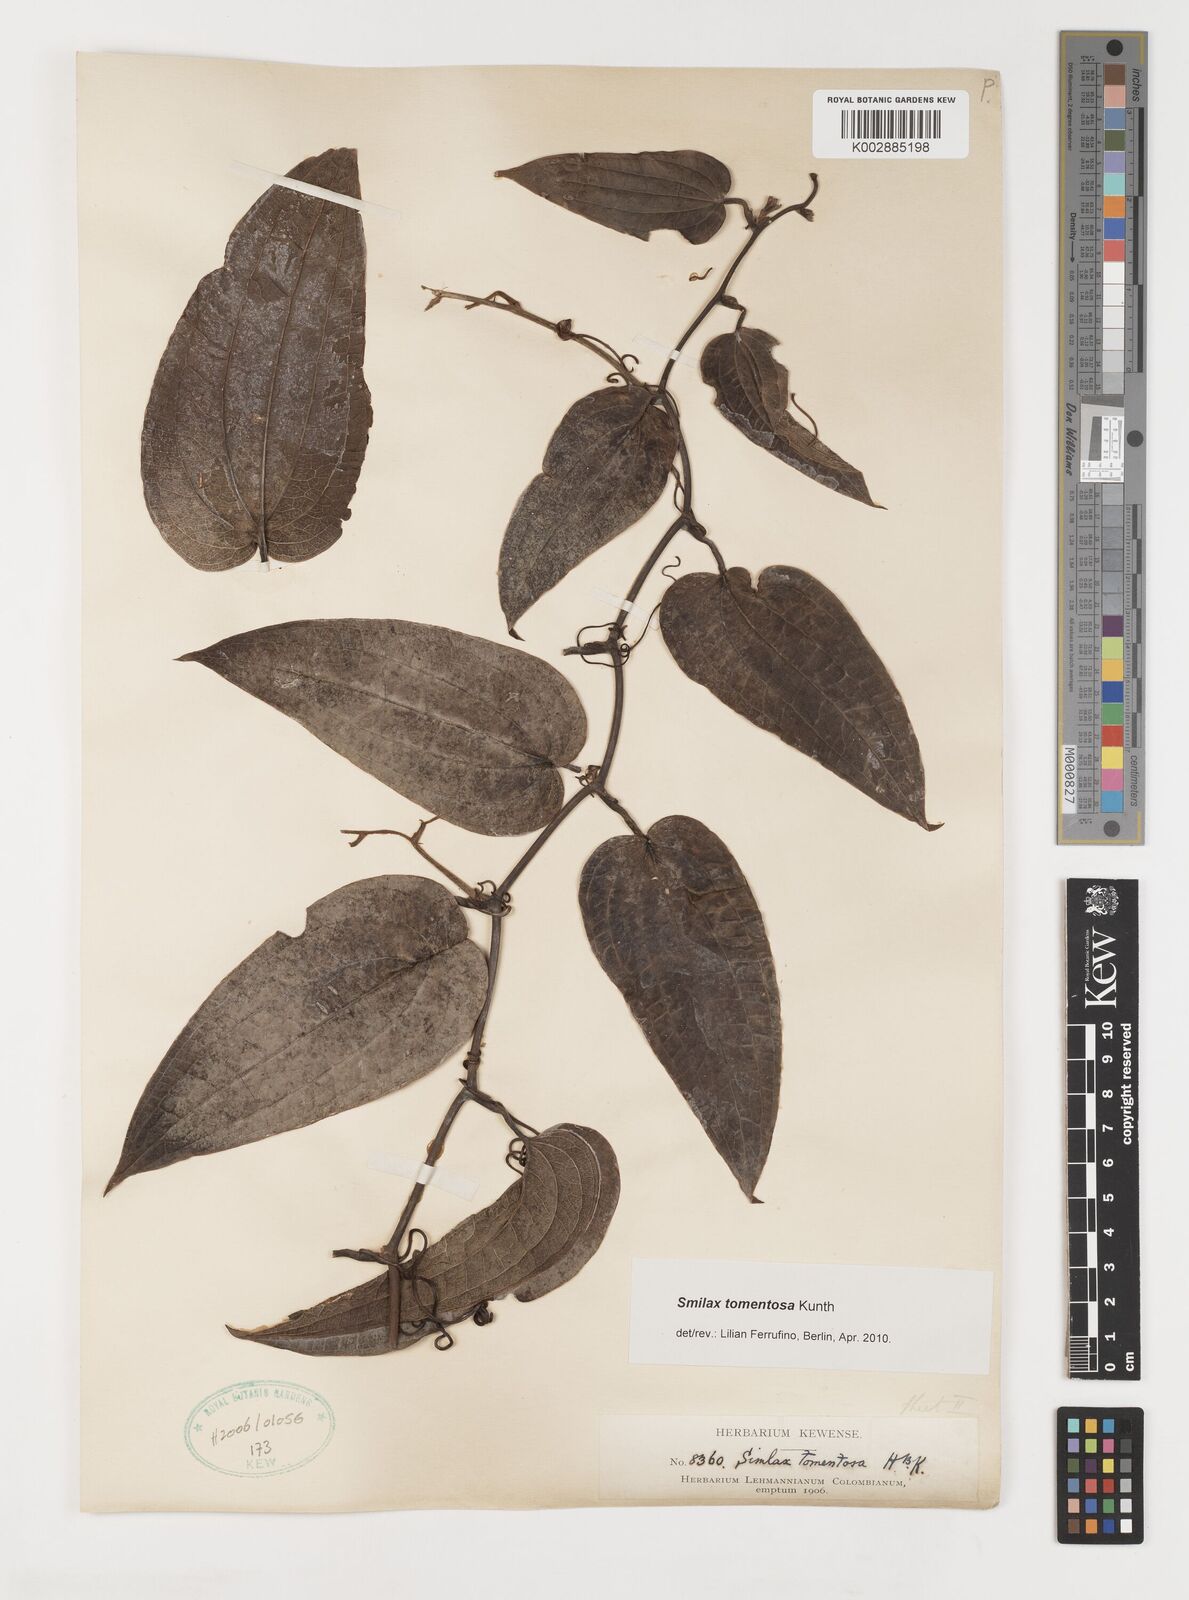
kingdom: Plantae
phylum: Tracheophyta
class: Liliopsida
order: Liliales
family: Smilacaceae
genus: Smilax
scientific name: Smilax tomentosa
